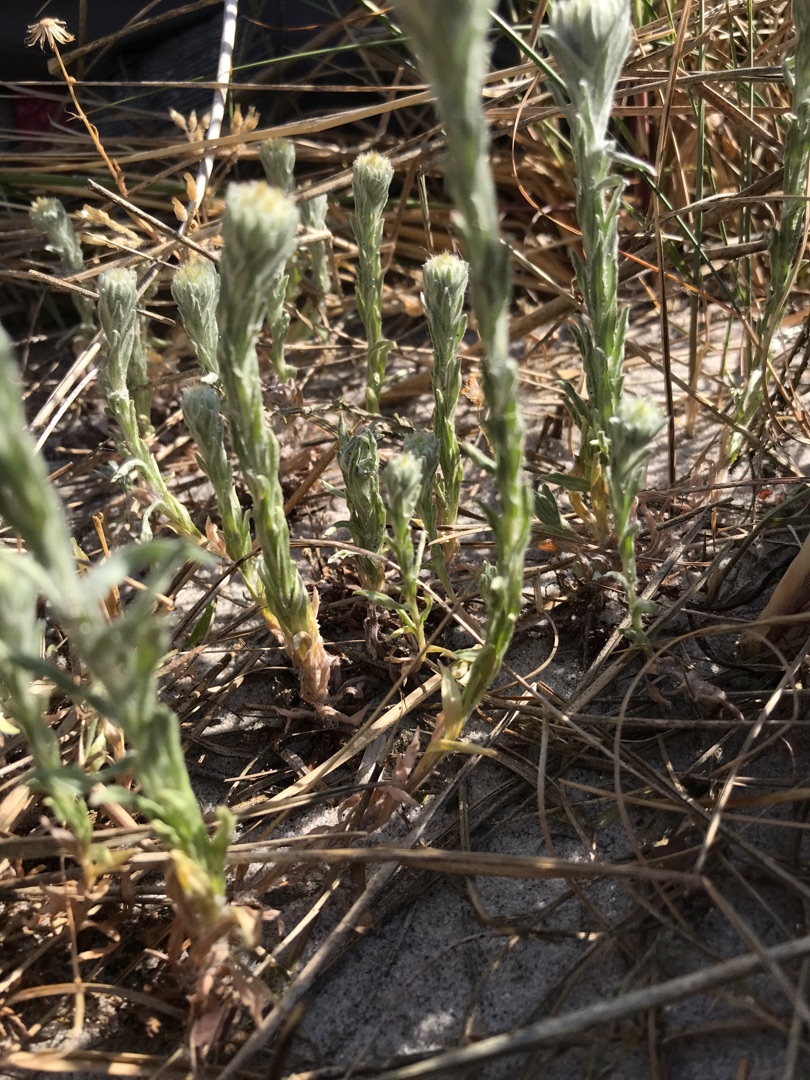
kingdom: Plantae
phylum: Tracheophyta
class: Magnoliopsida
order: Asterales
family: Asteraceae
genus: Filago
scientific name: Filago germanica
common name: Kugle-museurt
